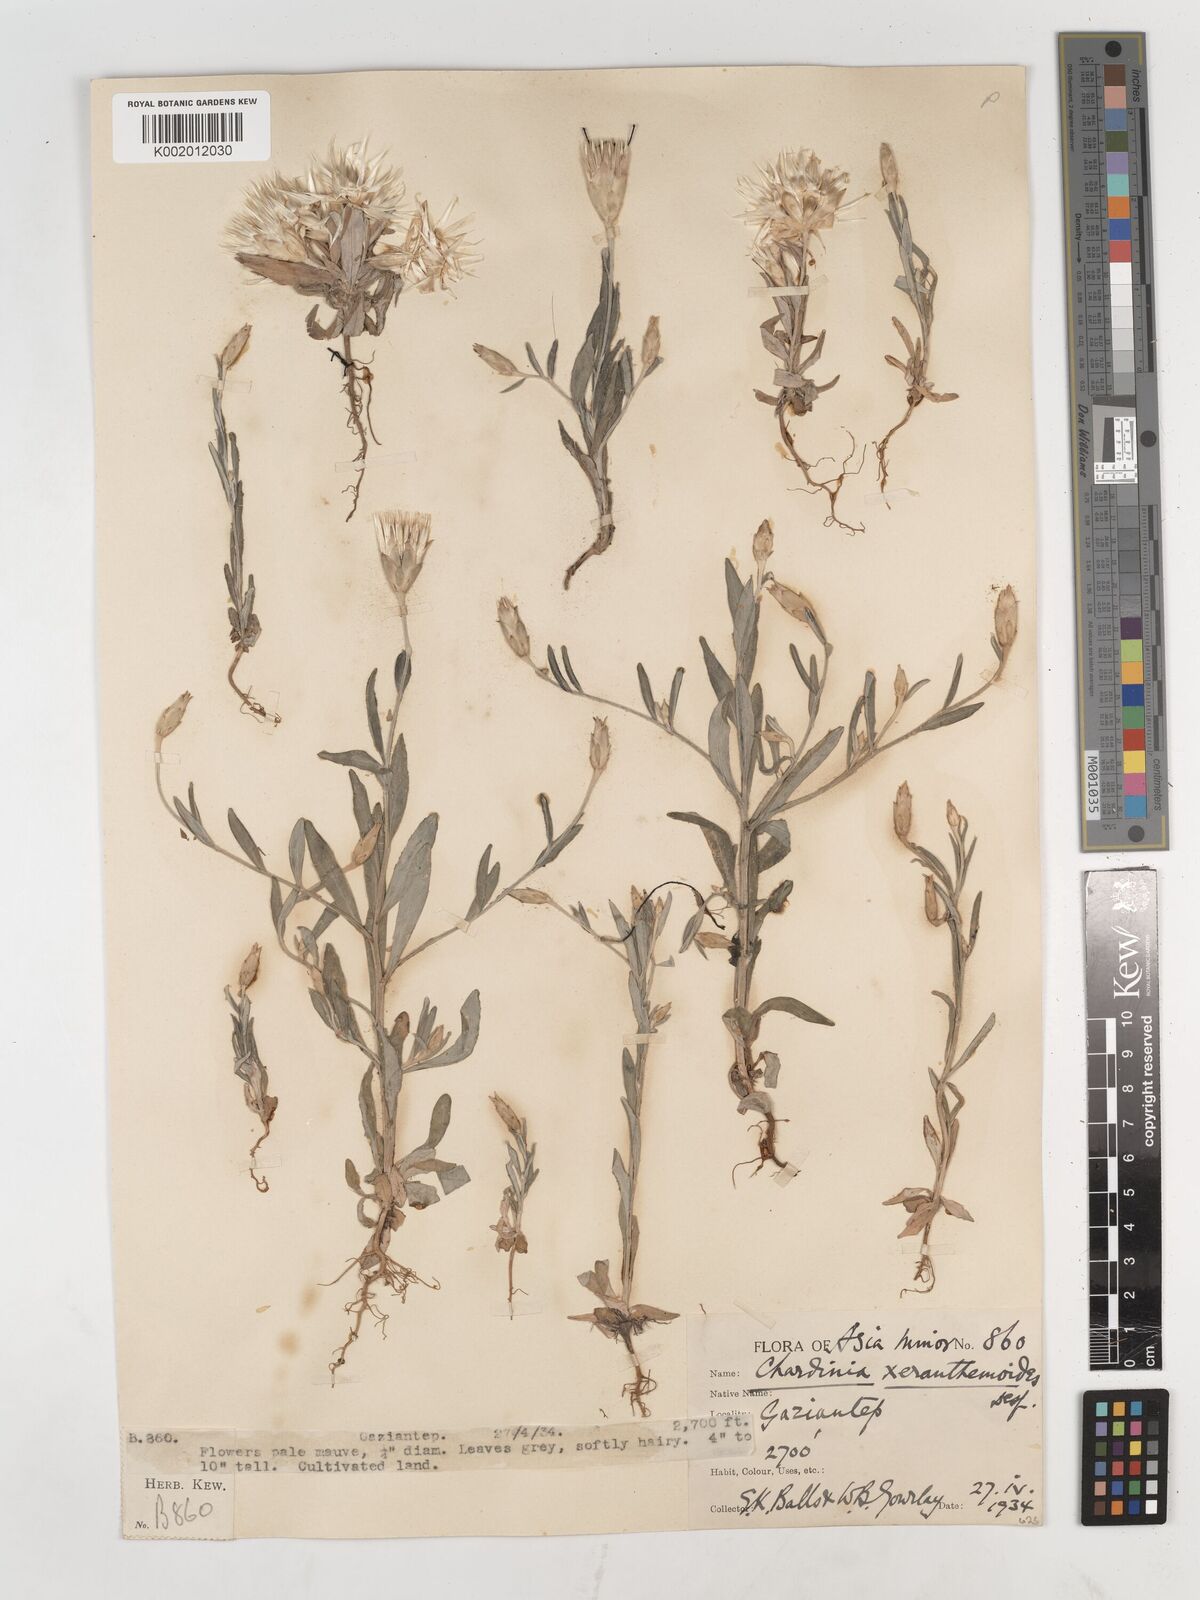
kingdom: Plantae
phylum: Tracheophyta
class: Magnoliopsida
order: Asterales
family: Asteraceae
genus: Chardinia
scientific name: Chardinia orientalis
